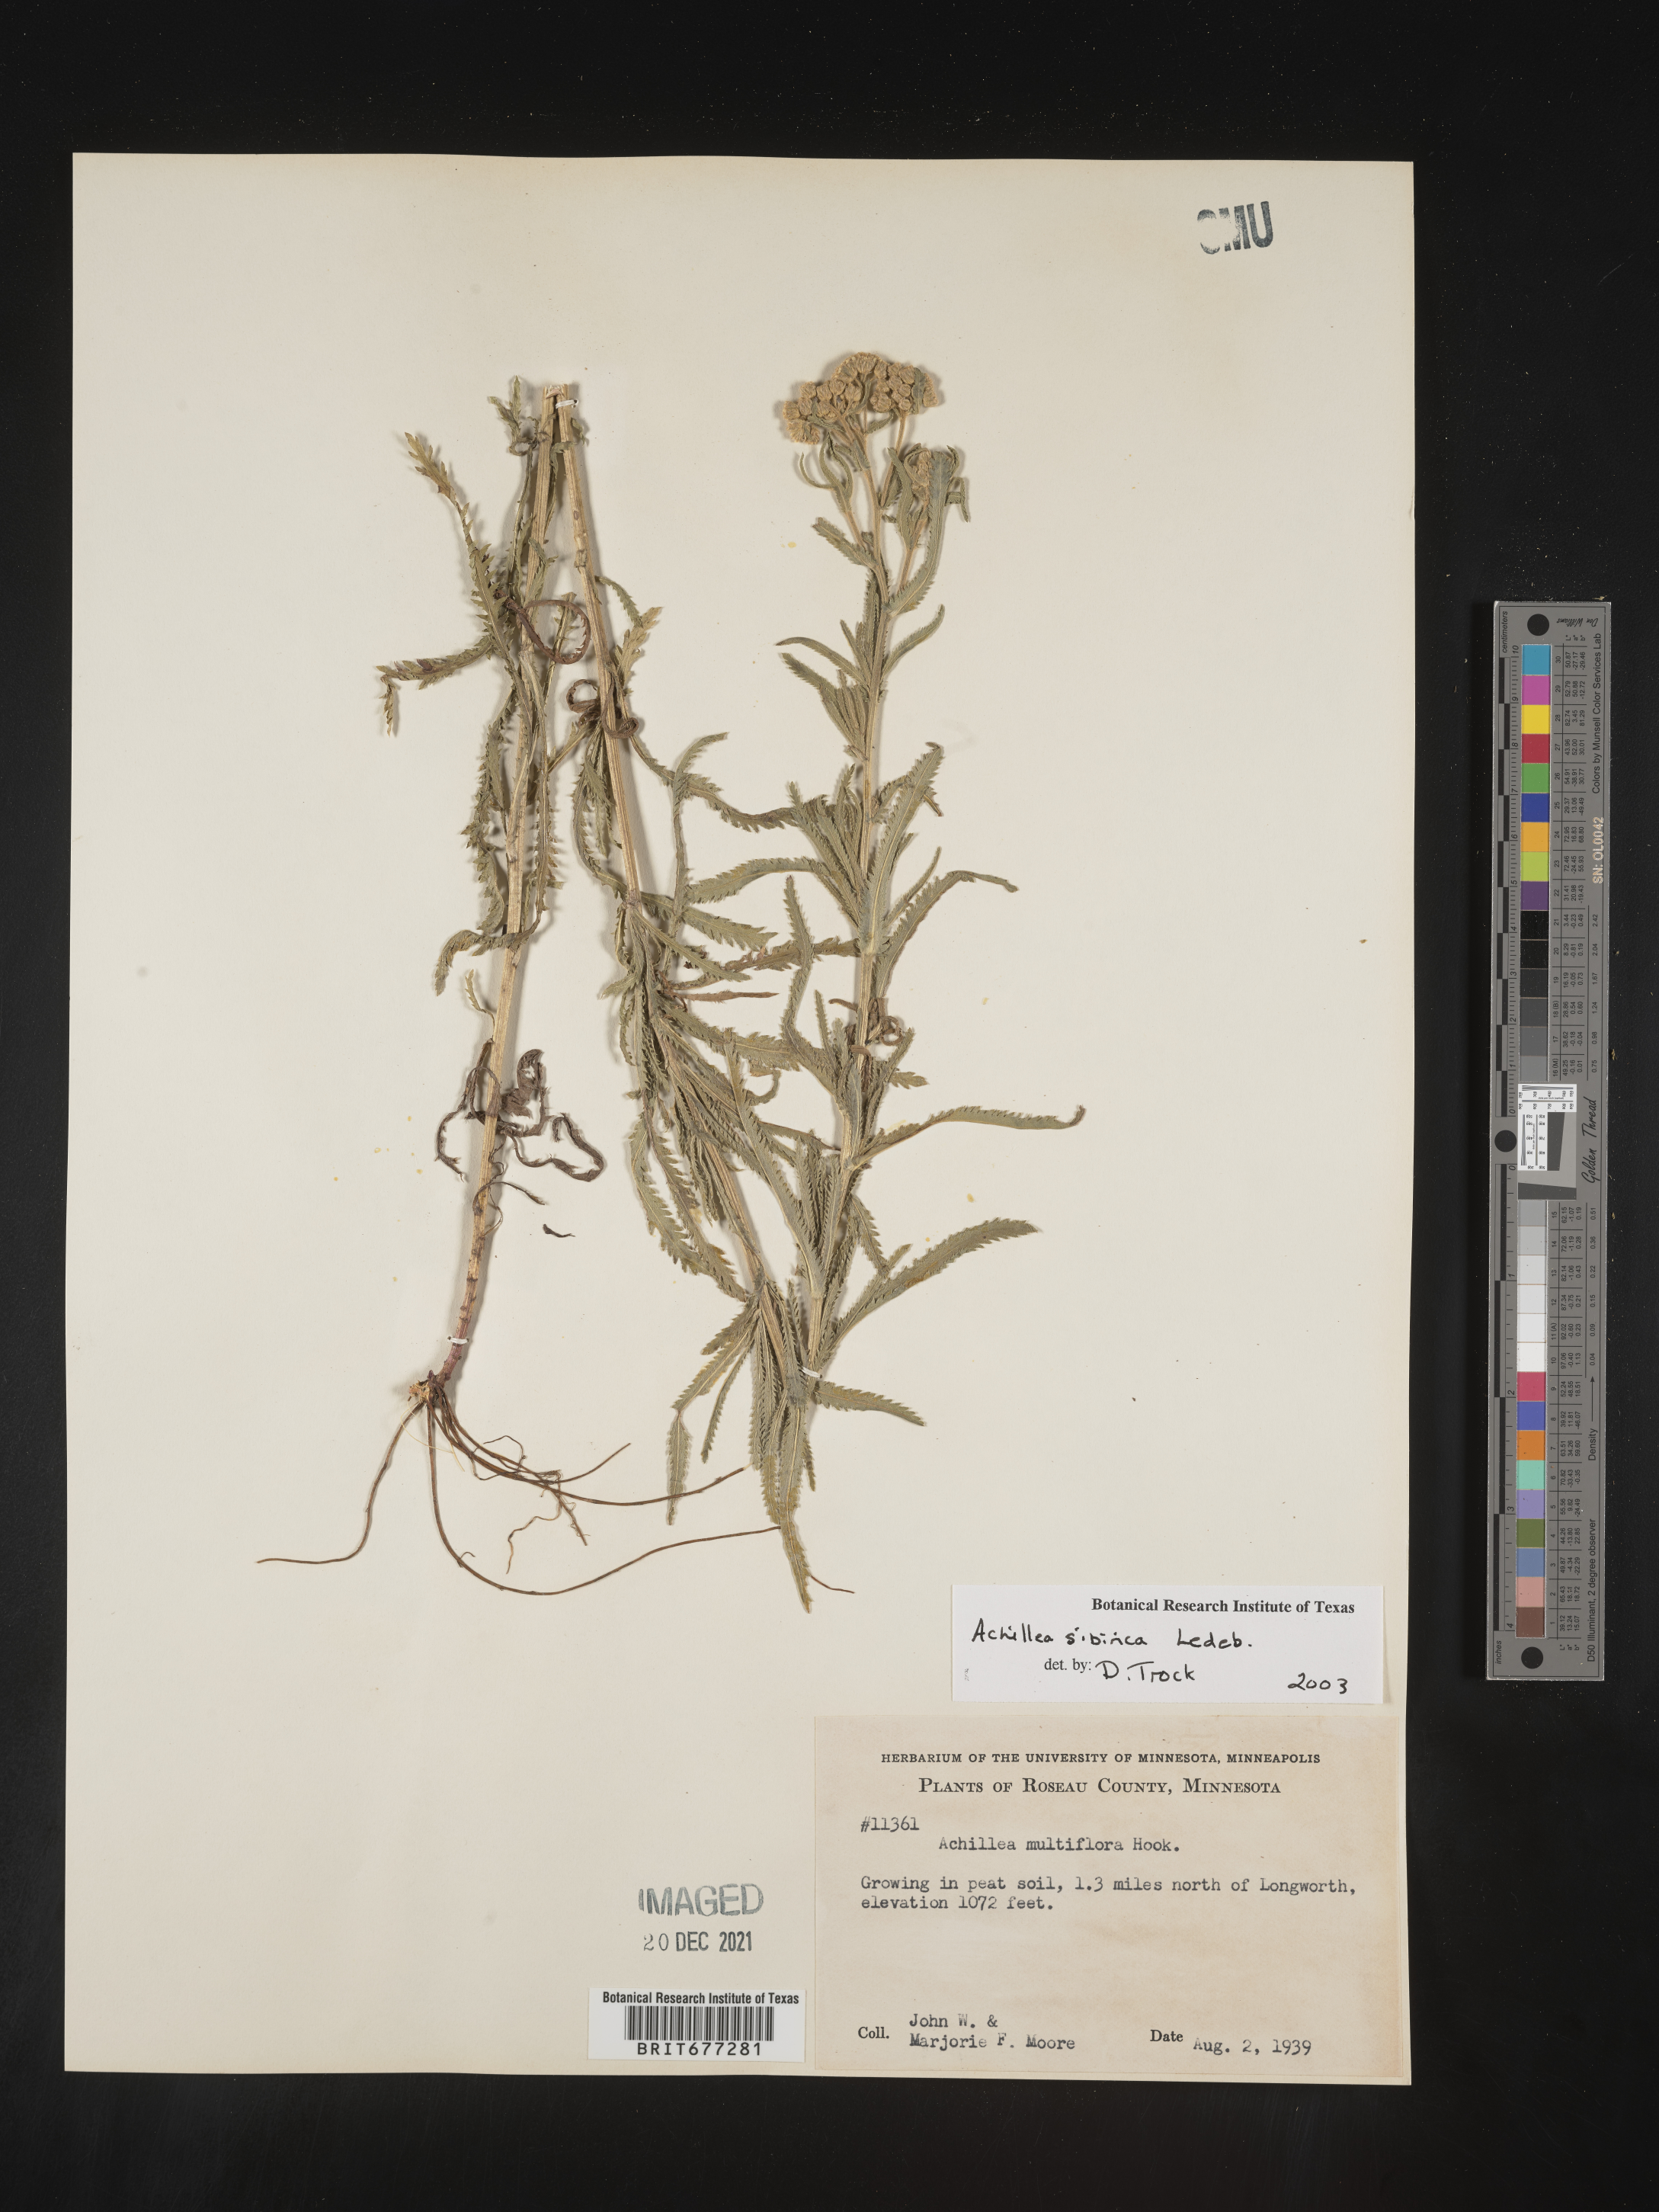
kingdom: Plantae
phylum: Tracheophyta
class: Magnoliopsida
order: Asterales
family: Asteraceae
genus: Achillea
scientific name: Achillea
